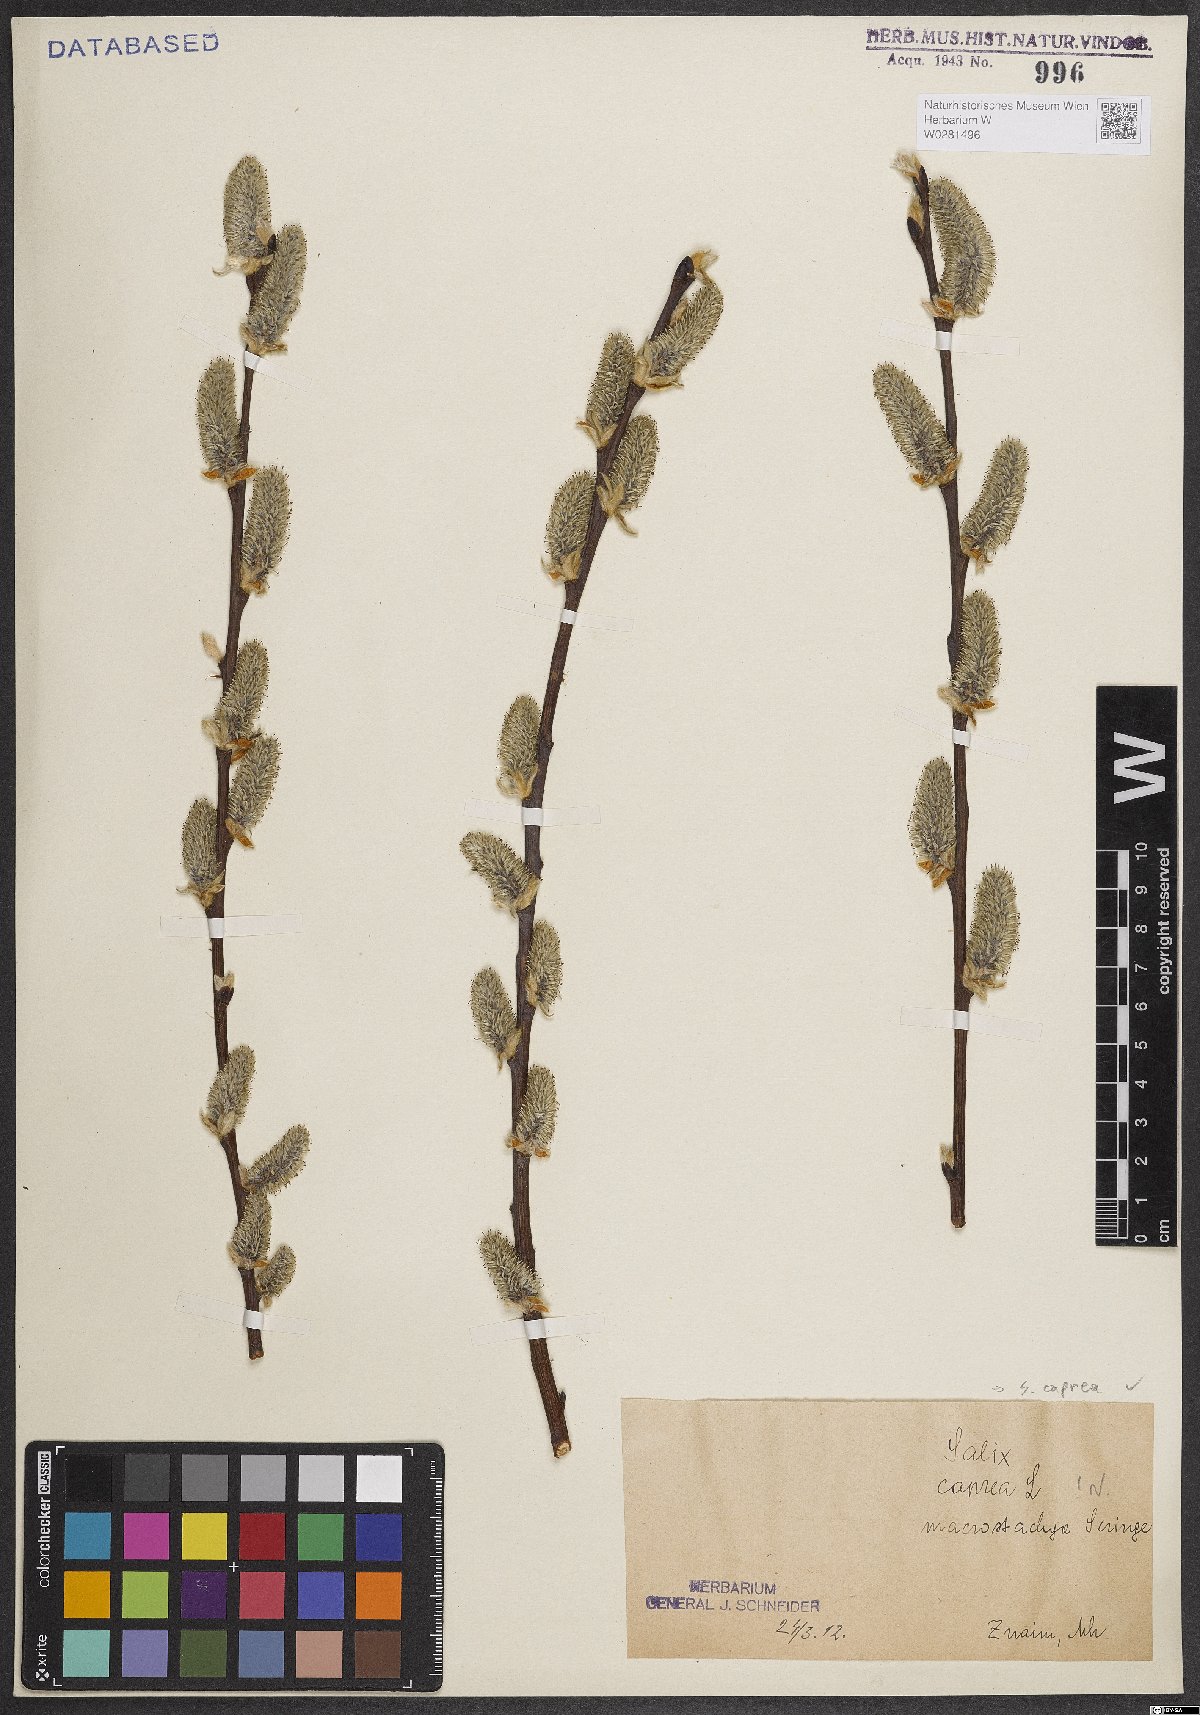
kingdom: Plantae
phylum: Tracheophyta
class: Magnoliopsida
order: Malpighiales
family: Salicaceae
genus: Salix
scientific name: Salix caprea
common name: Goat willow
